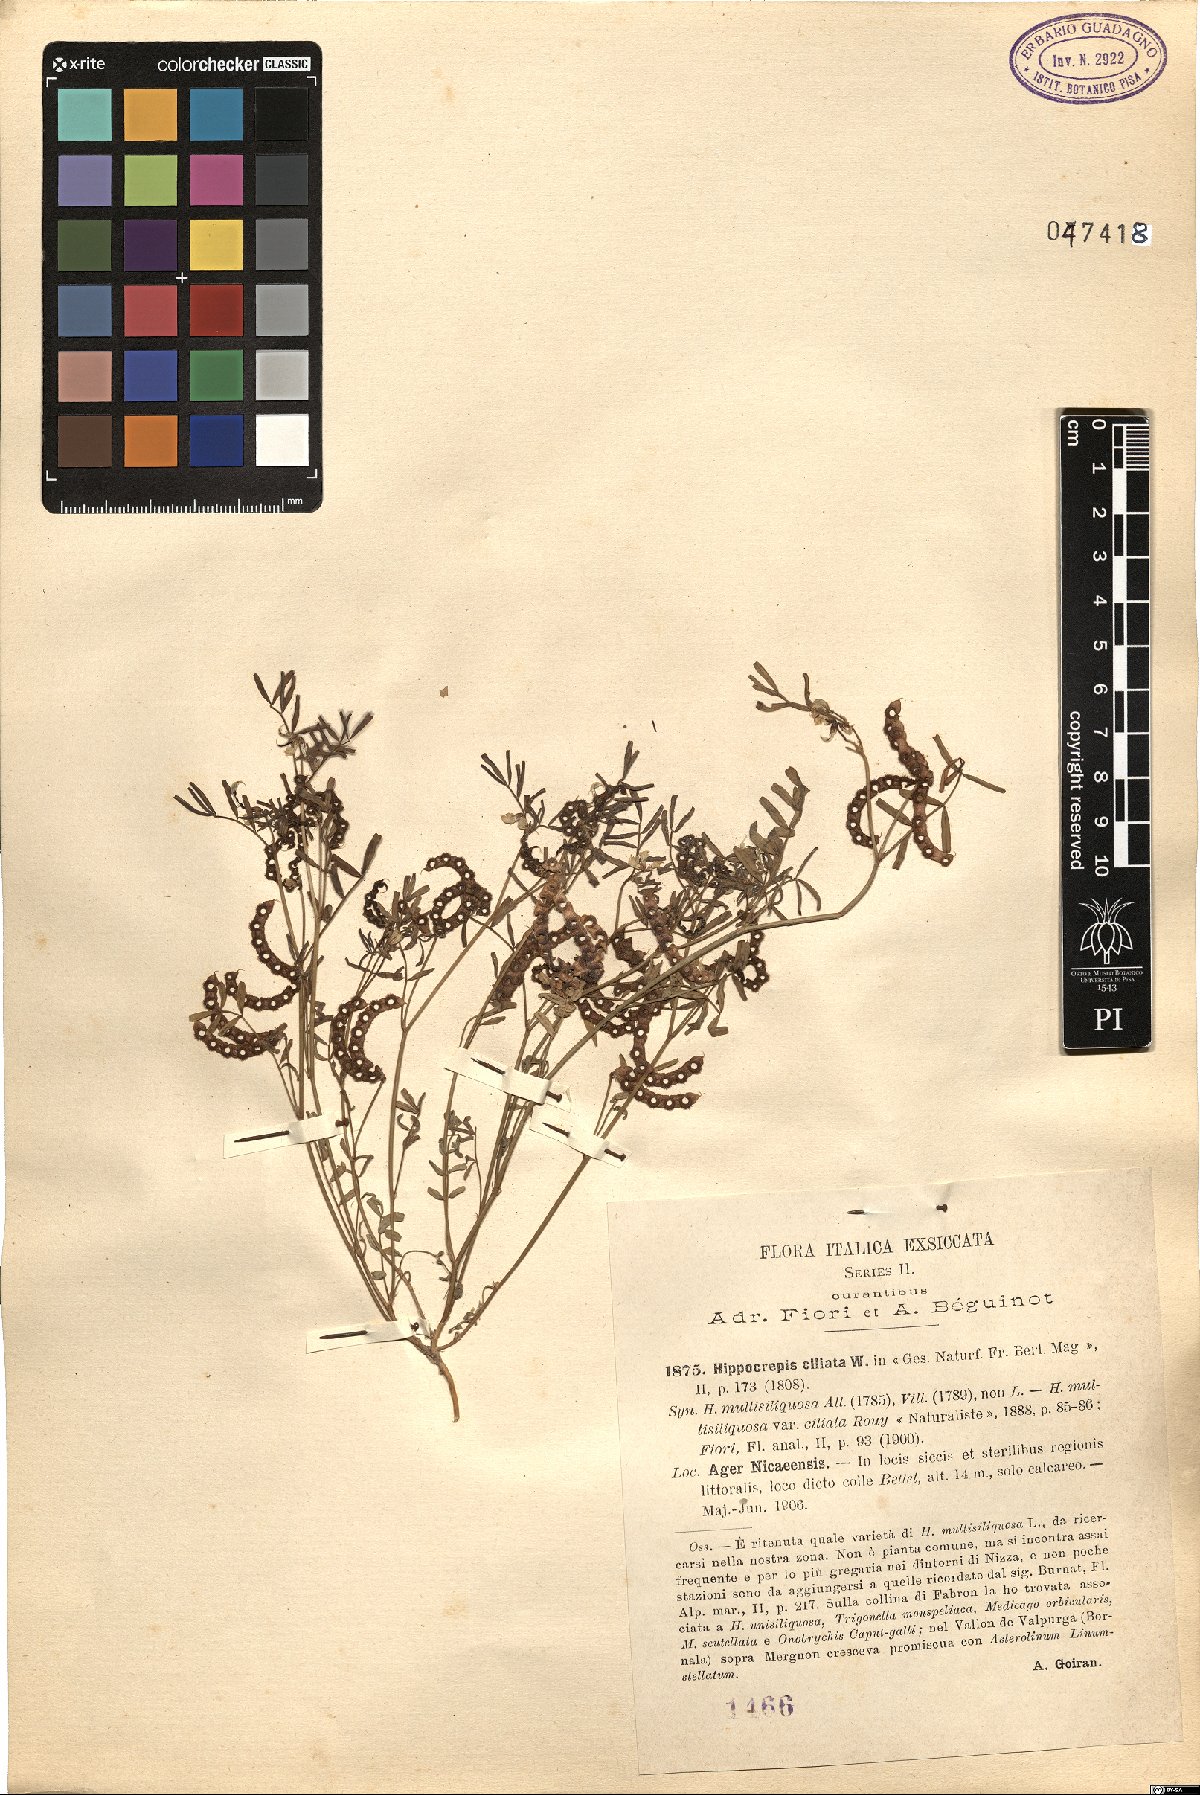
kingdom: Plantae
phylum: Tracheophyta
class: Magnoliopsida
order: Fabales
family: Fabaceae
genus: Hippocrepis
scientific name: Hippocrepis ciliata
